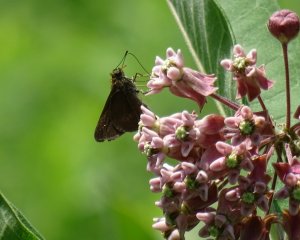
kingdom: Animalia
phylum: Arthropoda
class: Insecta
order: Lepidoptera
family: Hesperiidae
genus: Euphyes
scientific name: Euphyes vestris
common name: Dun Skipper
